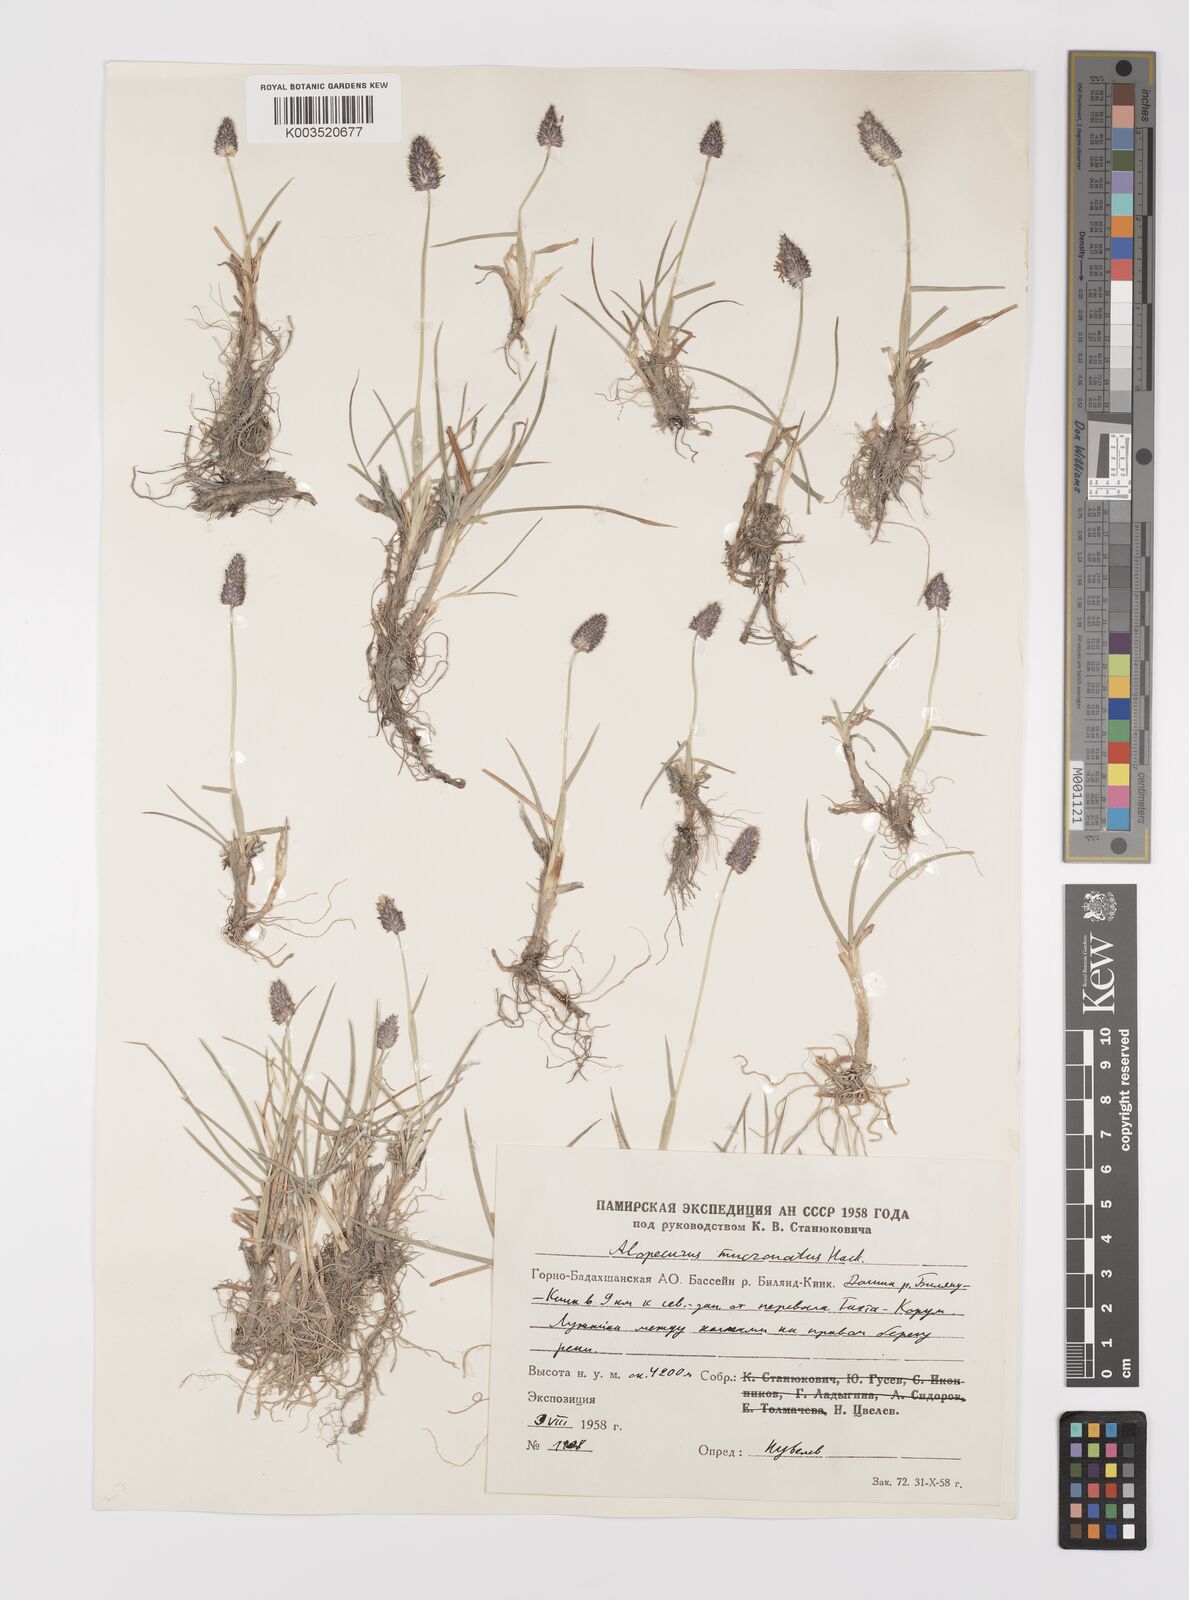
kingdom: Plantae
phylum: Tracheophyta
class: Liliopsida
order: Poales
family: Poaceae
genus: Alopecurus
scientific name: Alopecurus mucronatus
